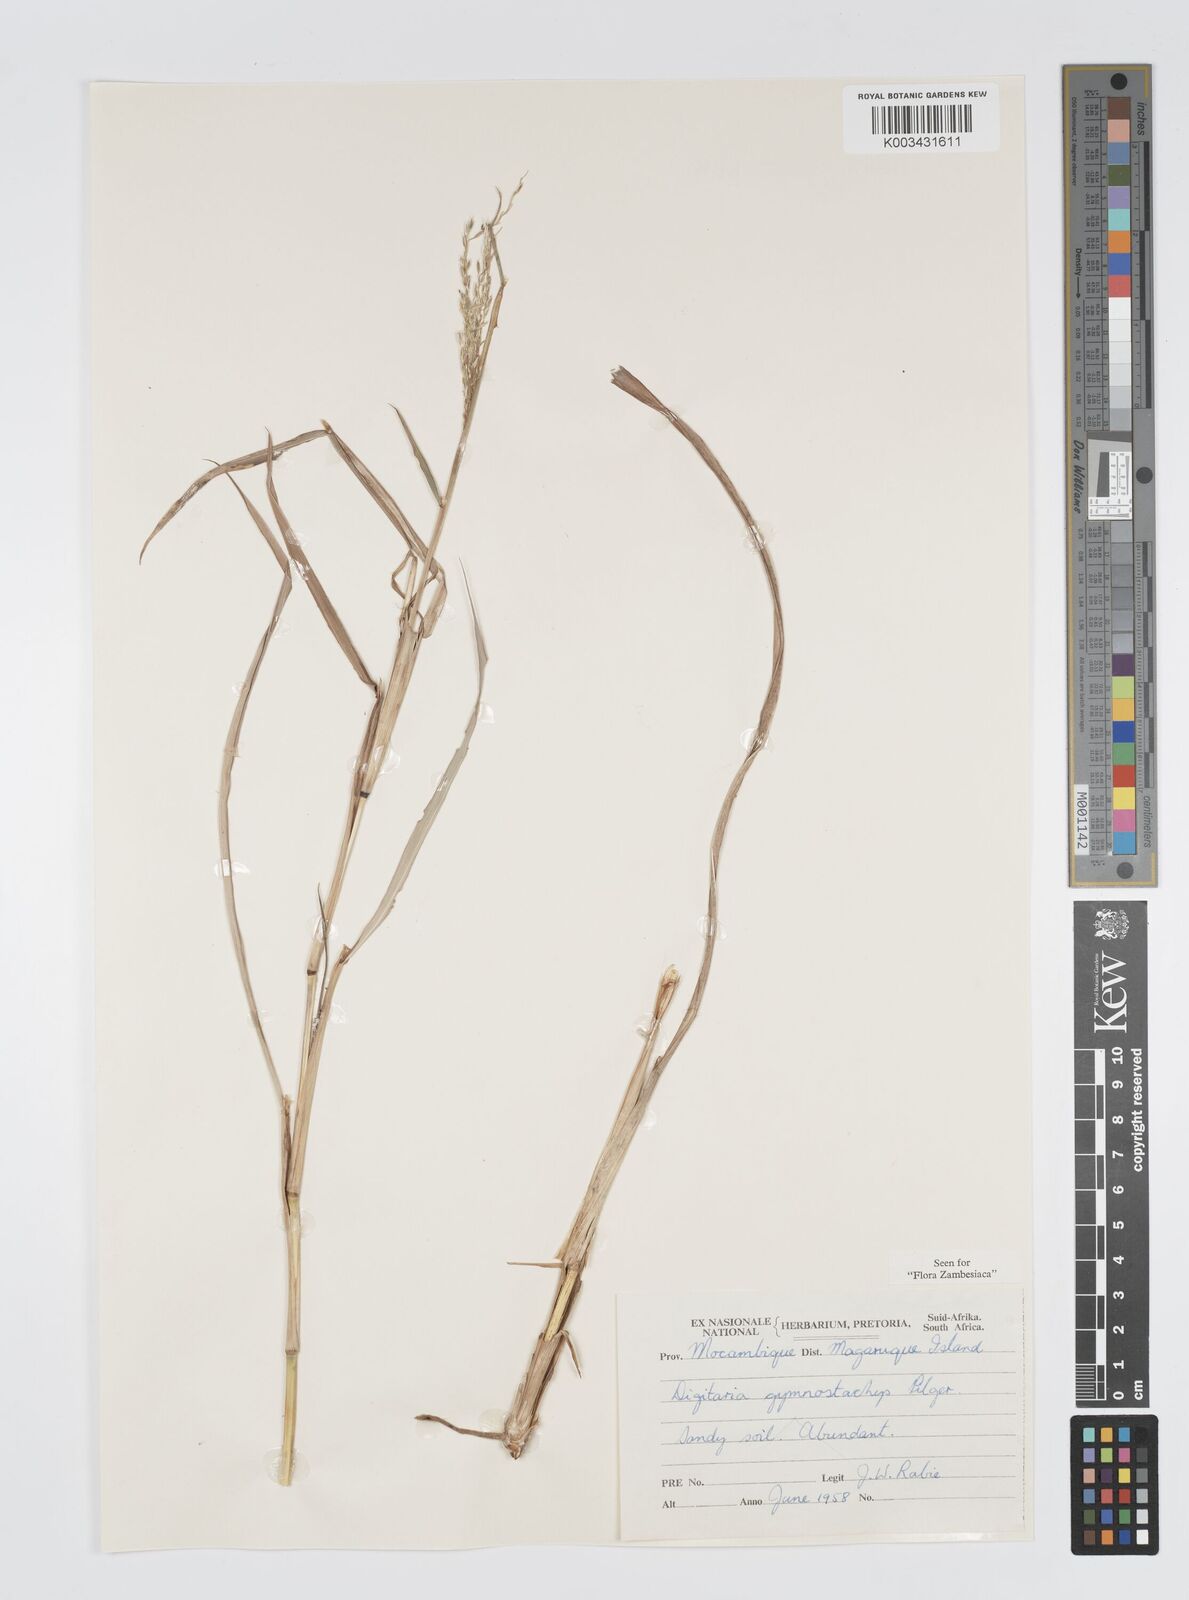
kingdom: Plantae
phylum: Tracheophyta
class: Liliopsida
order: Poales
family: Poaceae
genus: Digitaria
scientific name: Digitaria gymnostachys
